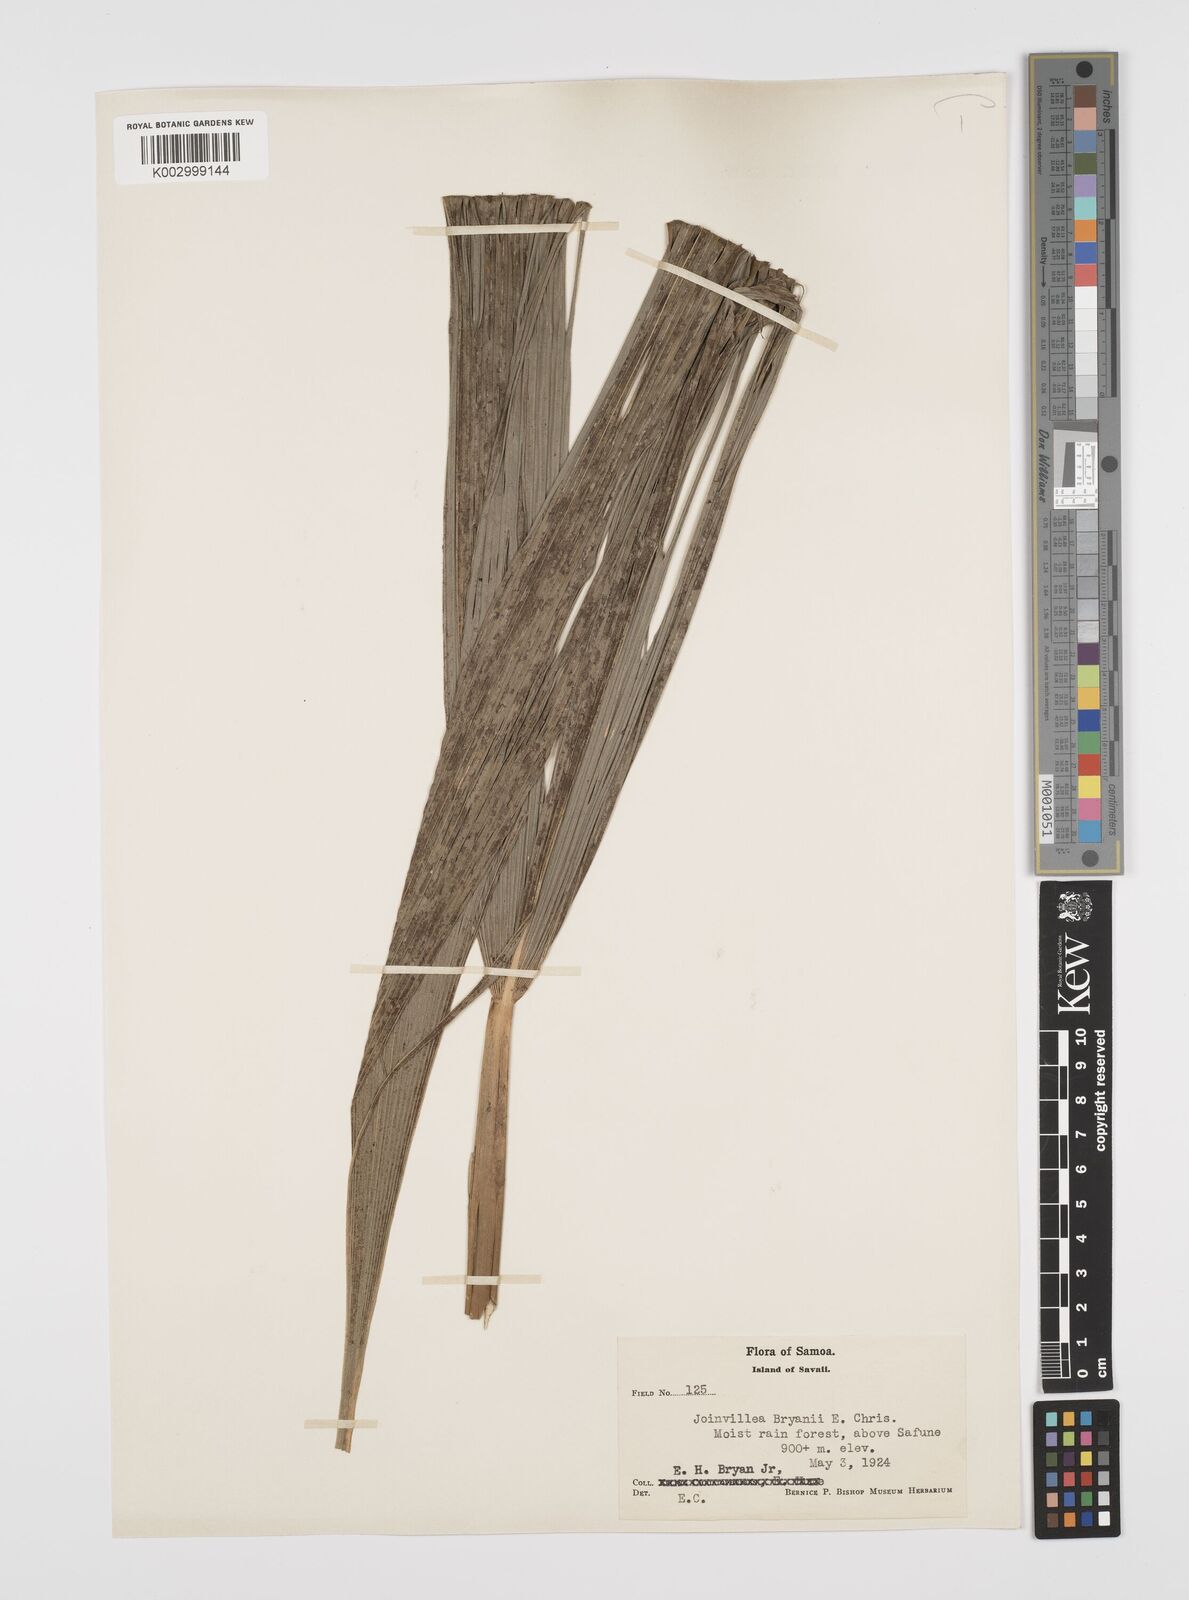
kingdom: Plantae
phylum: Tracheophyta
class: Liliopsida
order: Poales
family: Joinvilleaceae
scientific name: Joinvilleaceae
